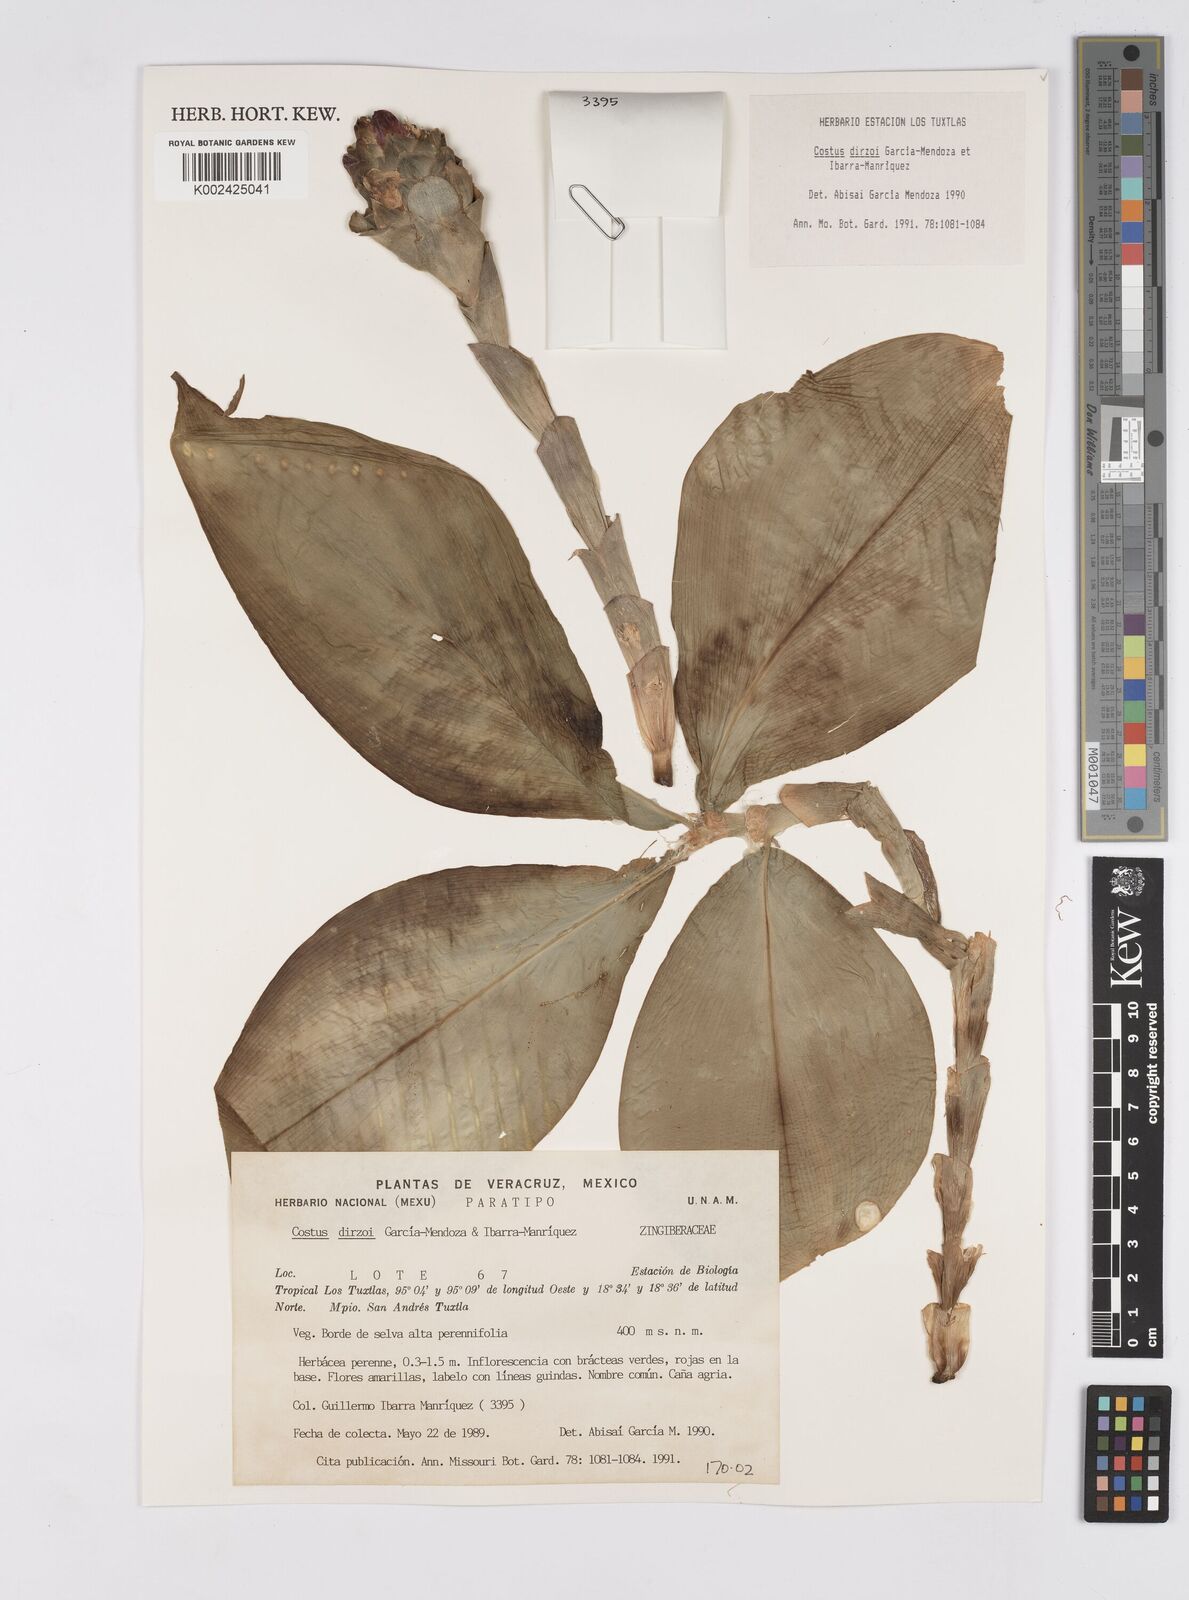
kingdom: Plantae
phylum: Tracheophyta
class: Liliopsida
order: Zingiberales
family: Costaceae
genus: Costus
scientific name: Costus dirzoi
